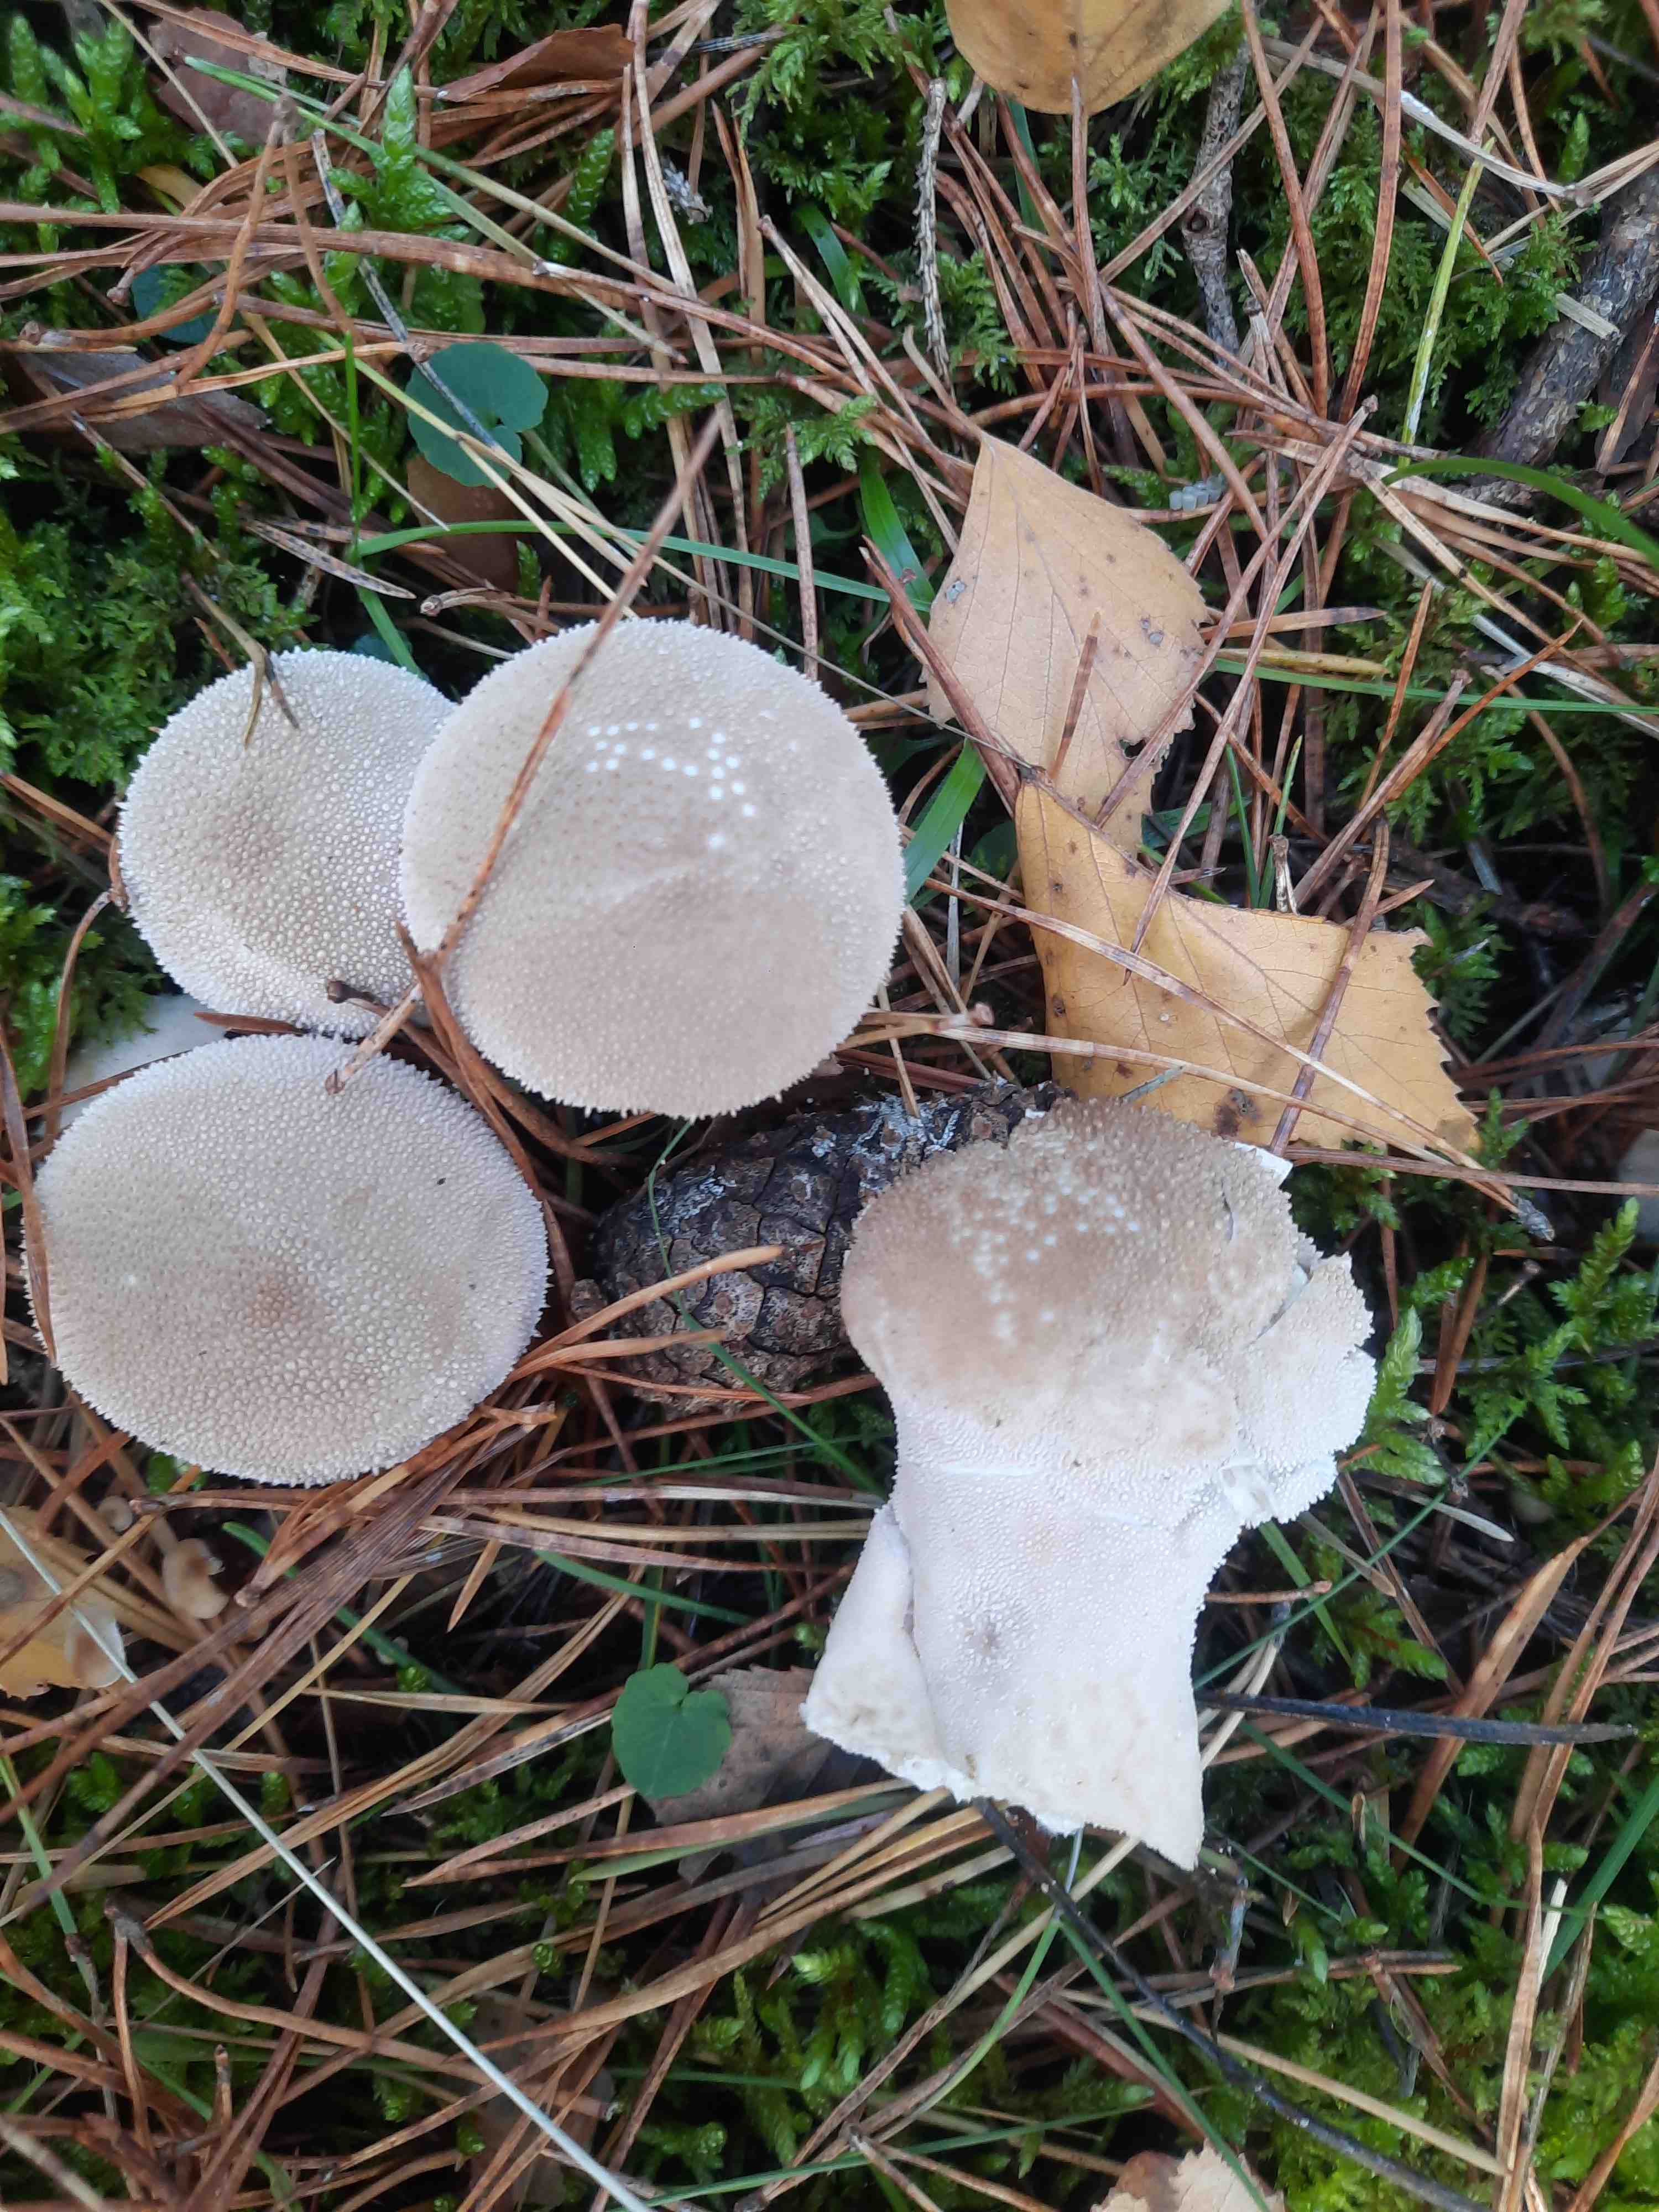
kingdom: Fungi
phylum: Basidiomycota
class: Agaricomycetes
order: Agaricales
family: Lycoperdaceae
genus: Lycoperdon
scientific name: Lycoperdon perlatum
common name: krystal-støvbold
